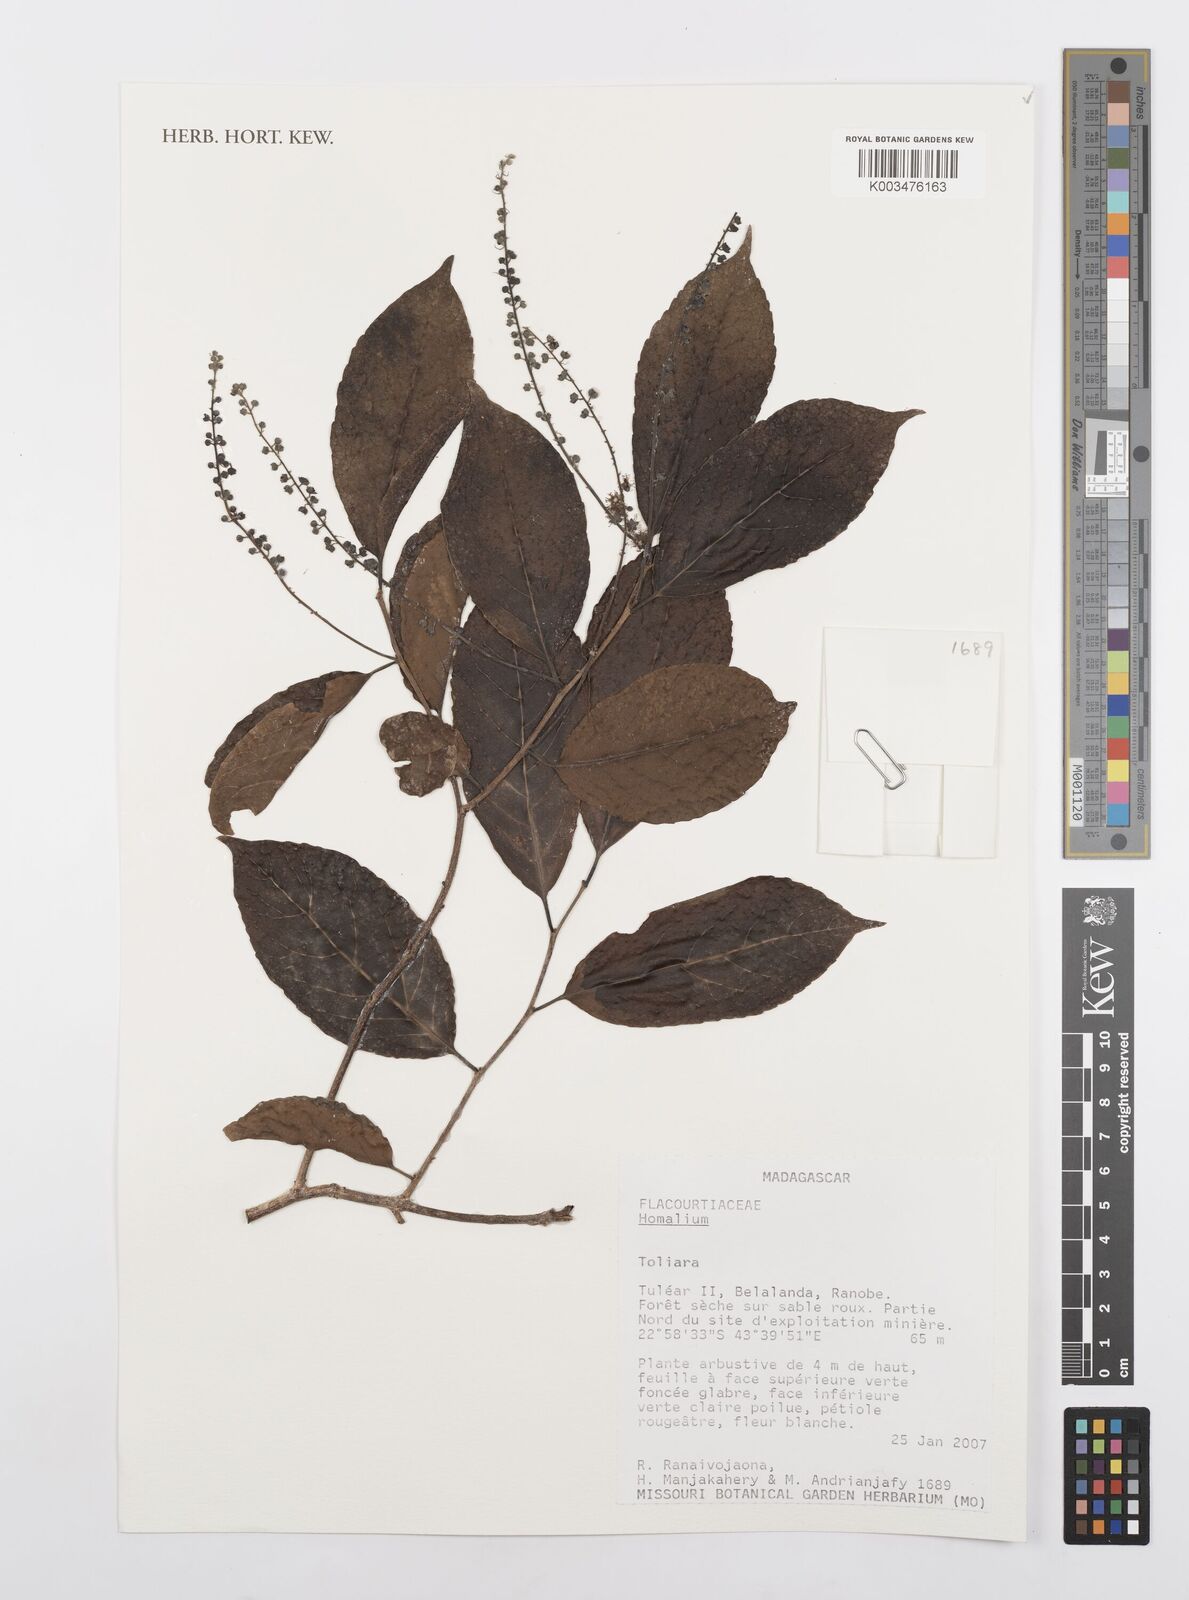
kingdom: Plantae
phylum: Tracheophyta
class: Magnoliopsida
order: Malpighiales
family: Salicaceae
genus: Homalium
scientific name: Homalium
